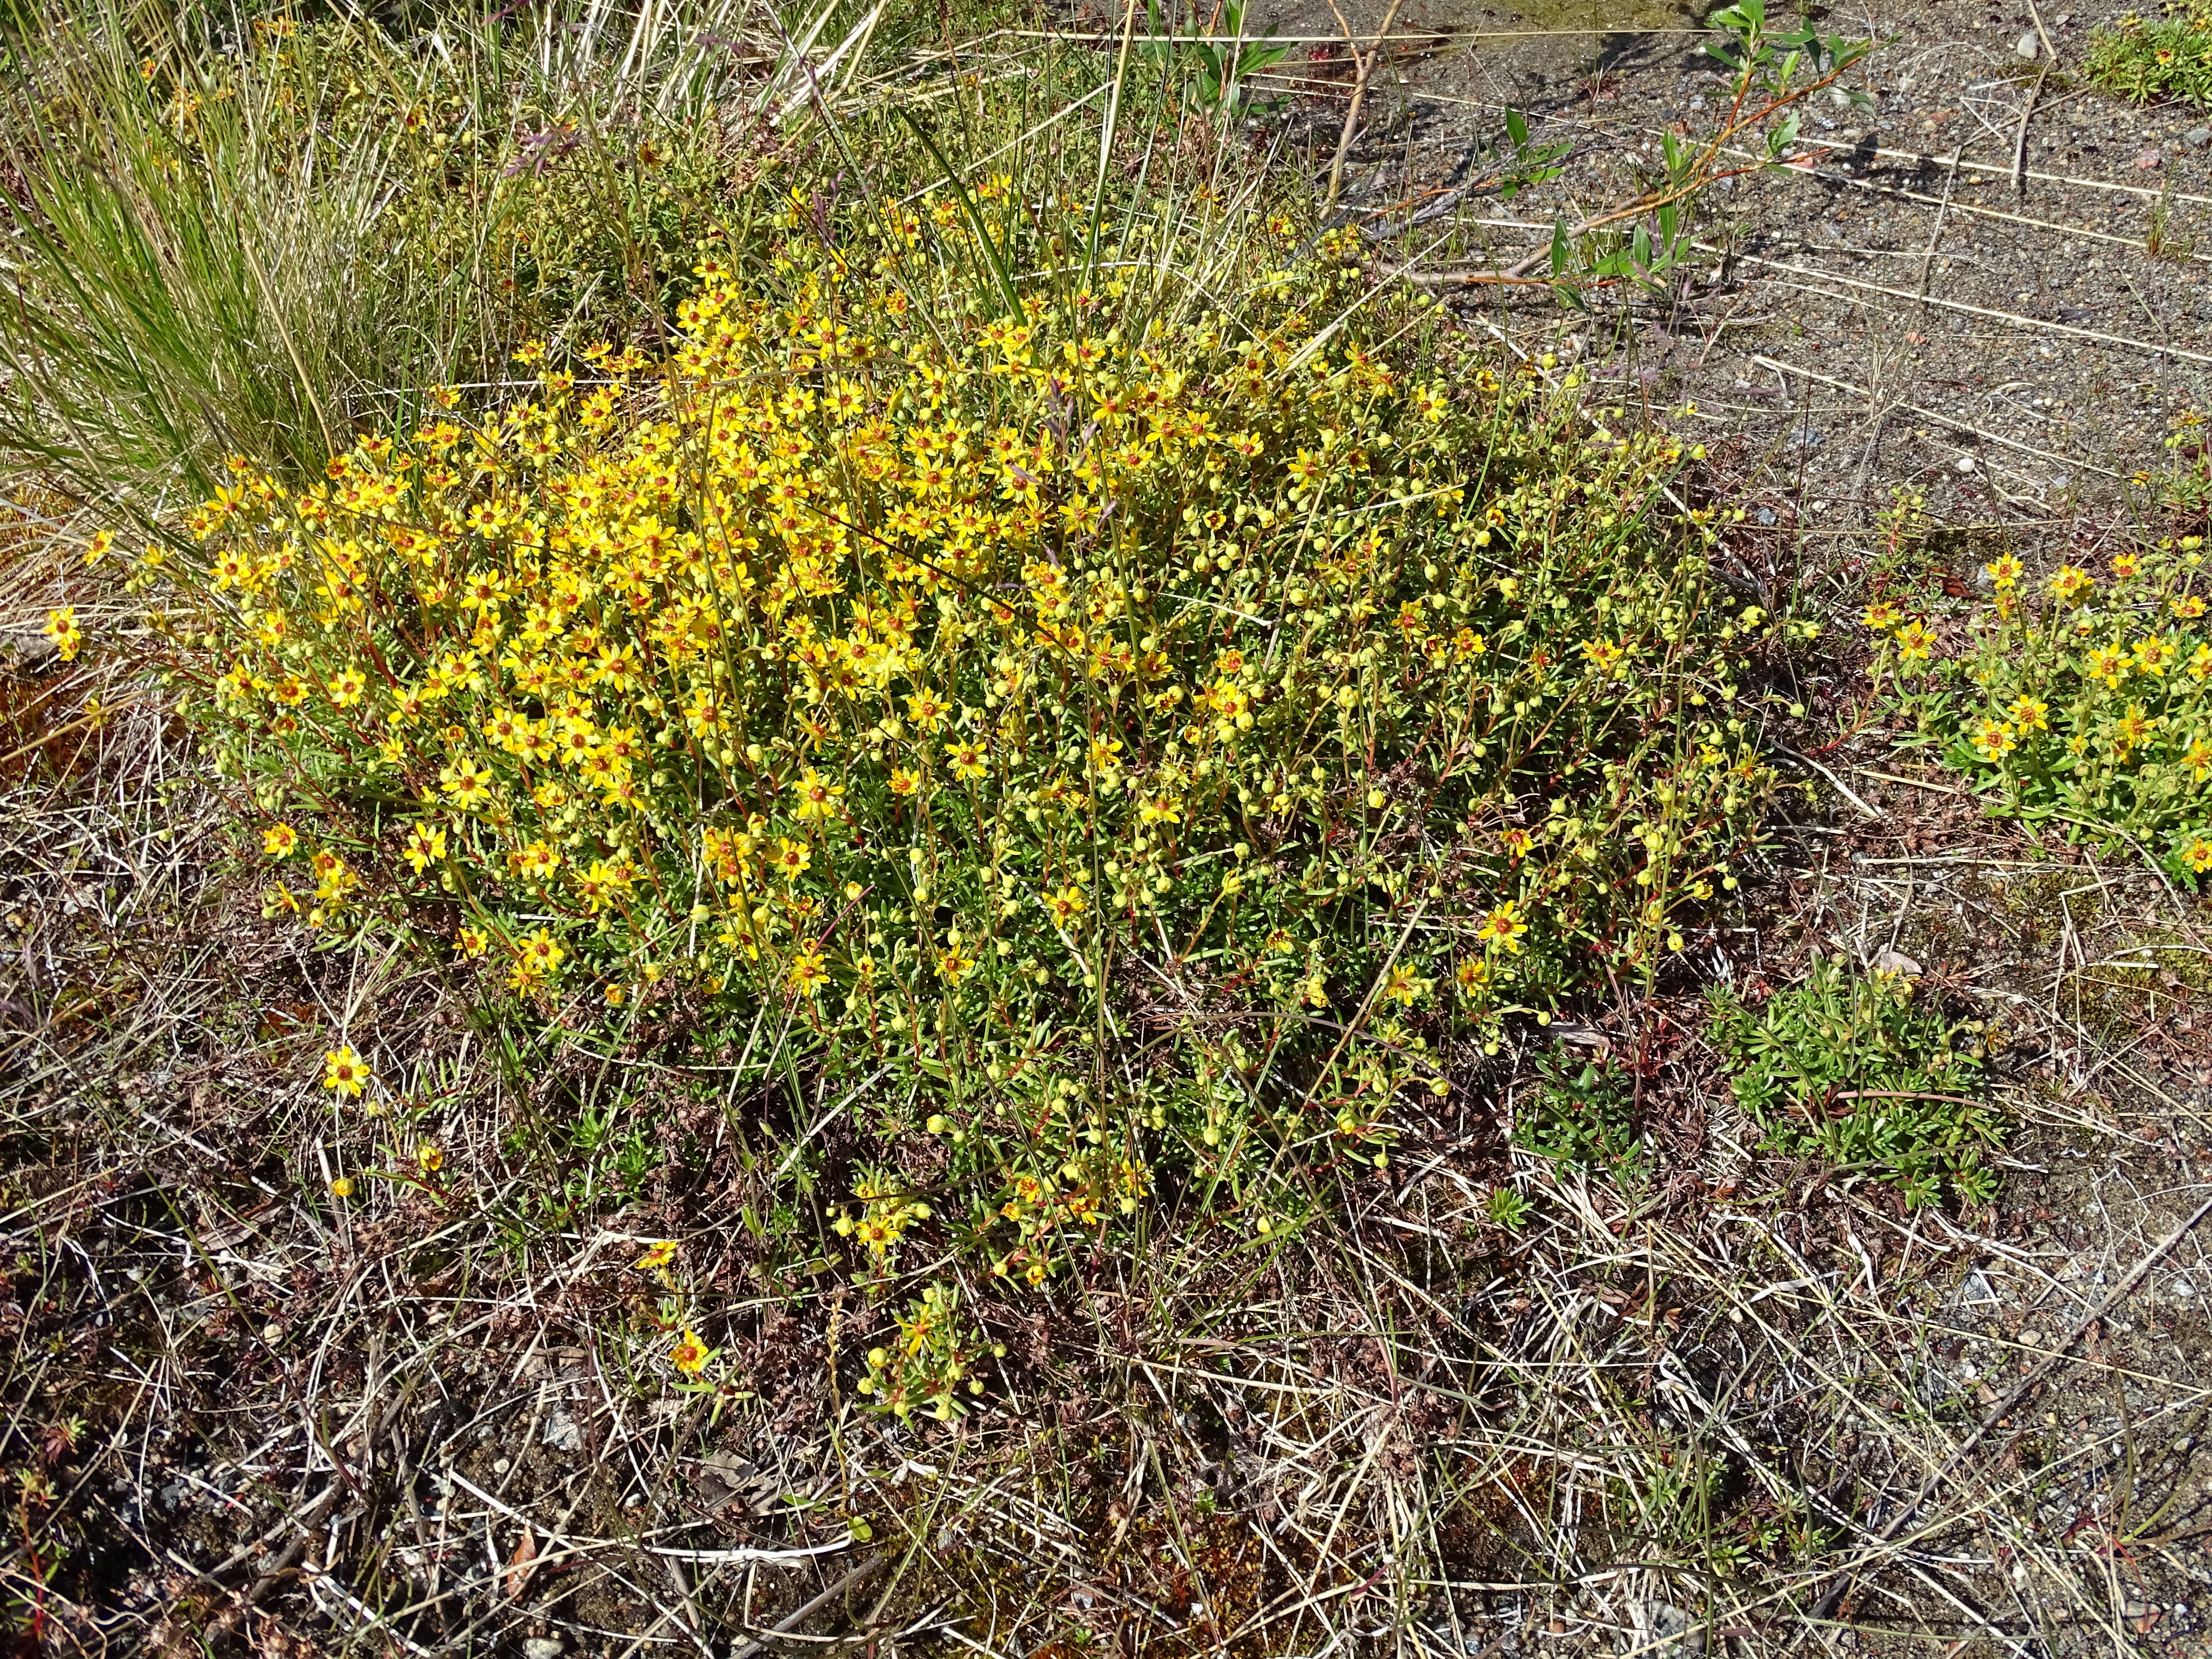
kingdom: Plantae
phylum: Tracheophyta
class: Magnoliopsida
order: Saxifragales
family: Saxifragaceae
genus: Saxifraga
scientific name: Saxifraga aizoides
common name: Yellow mountain saxifrage
